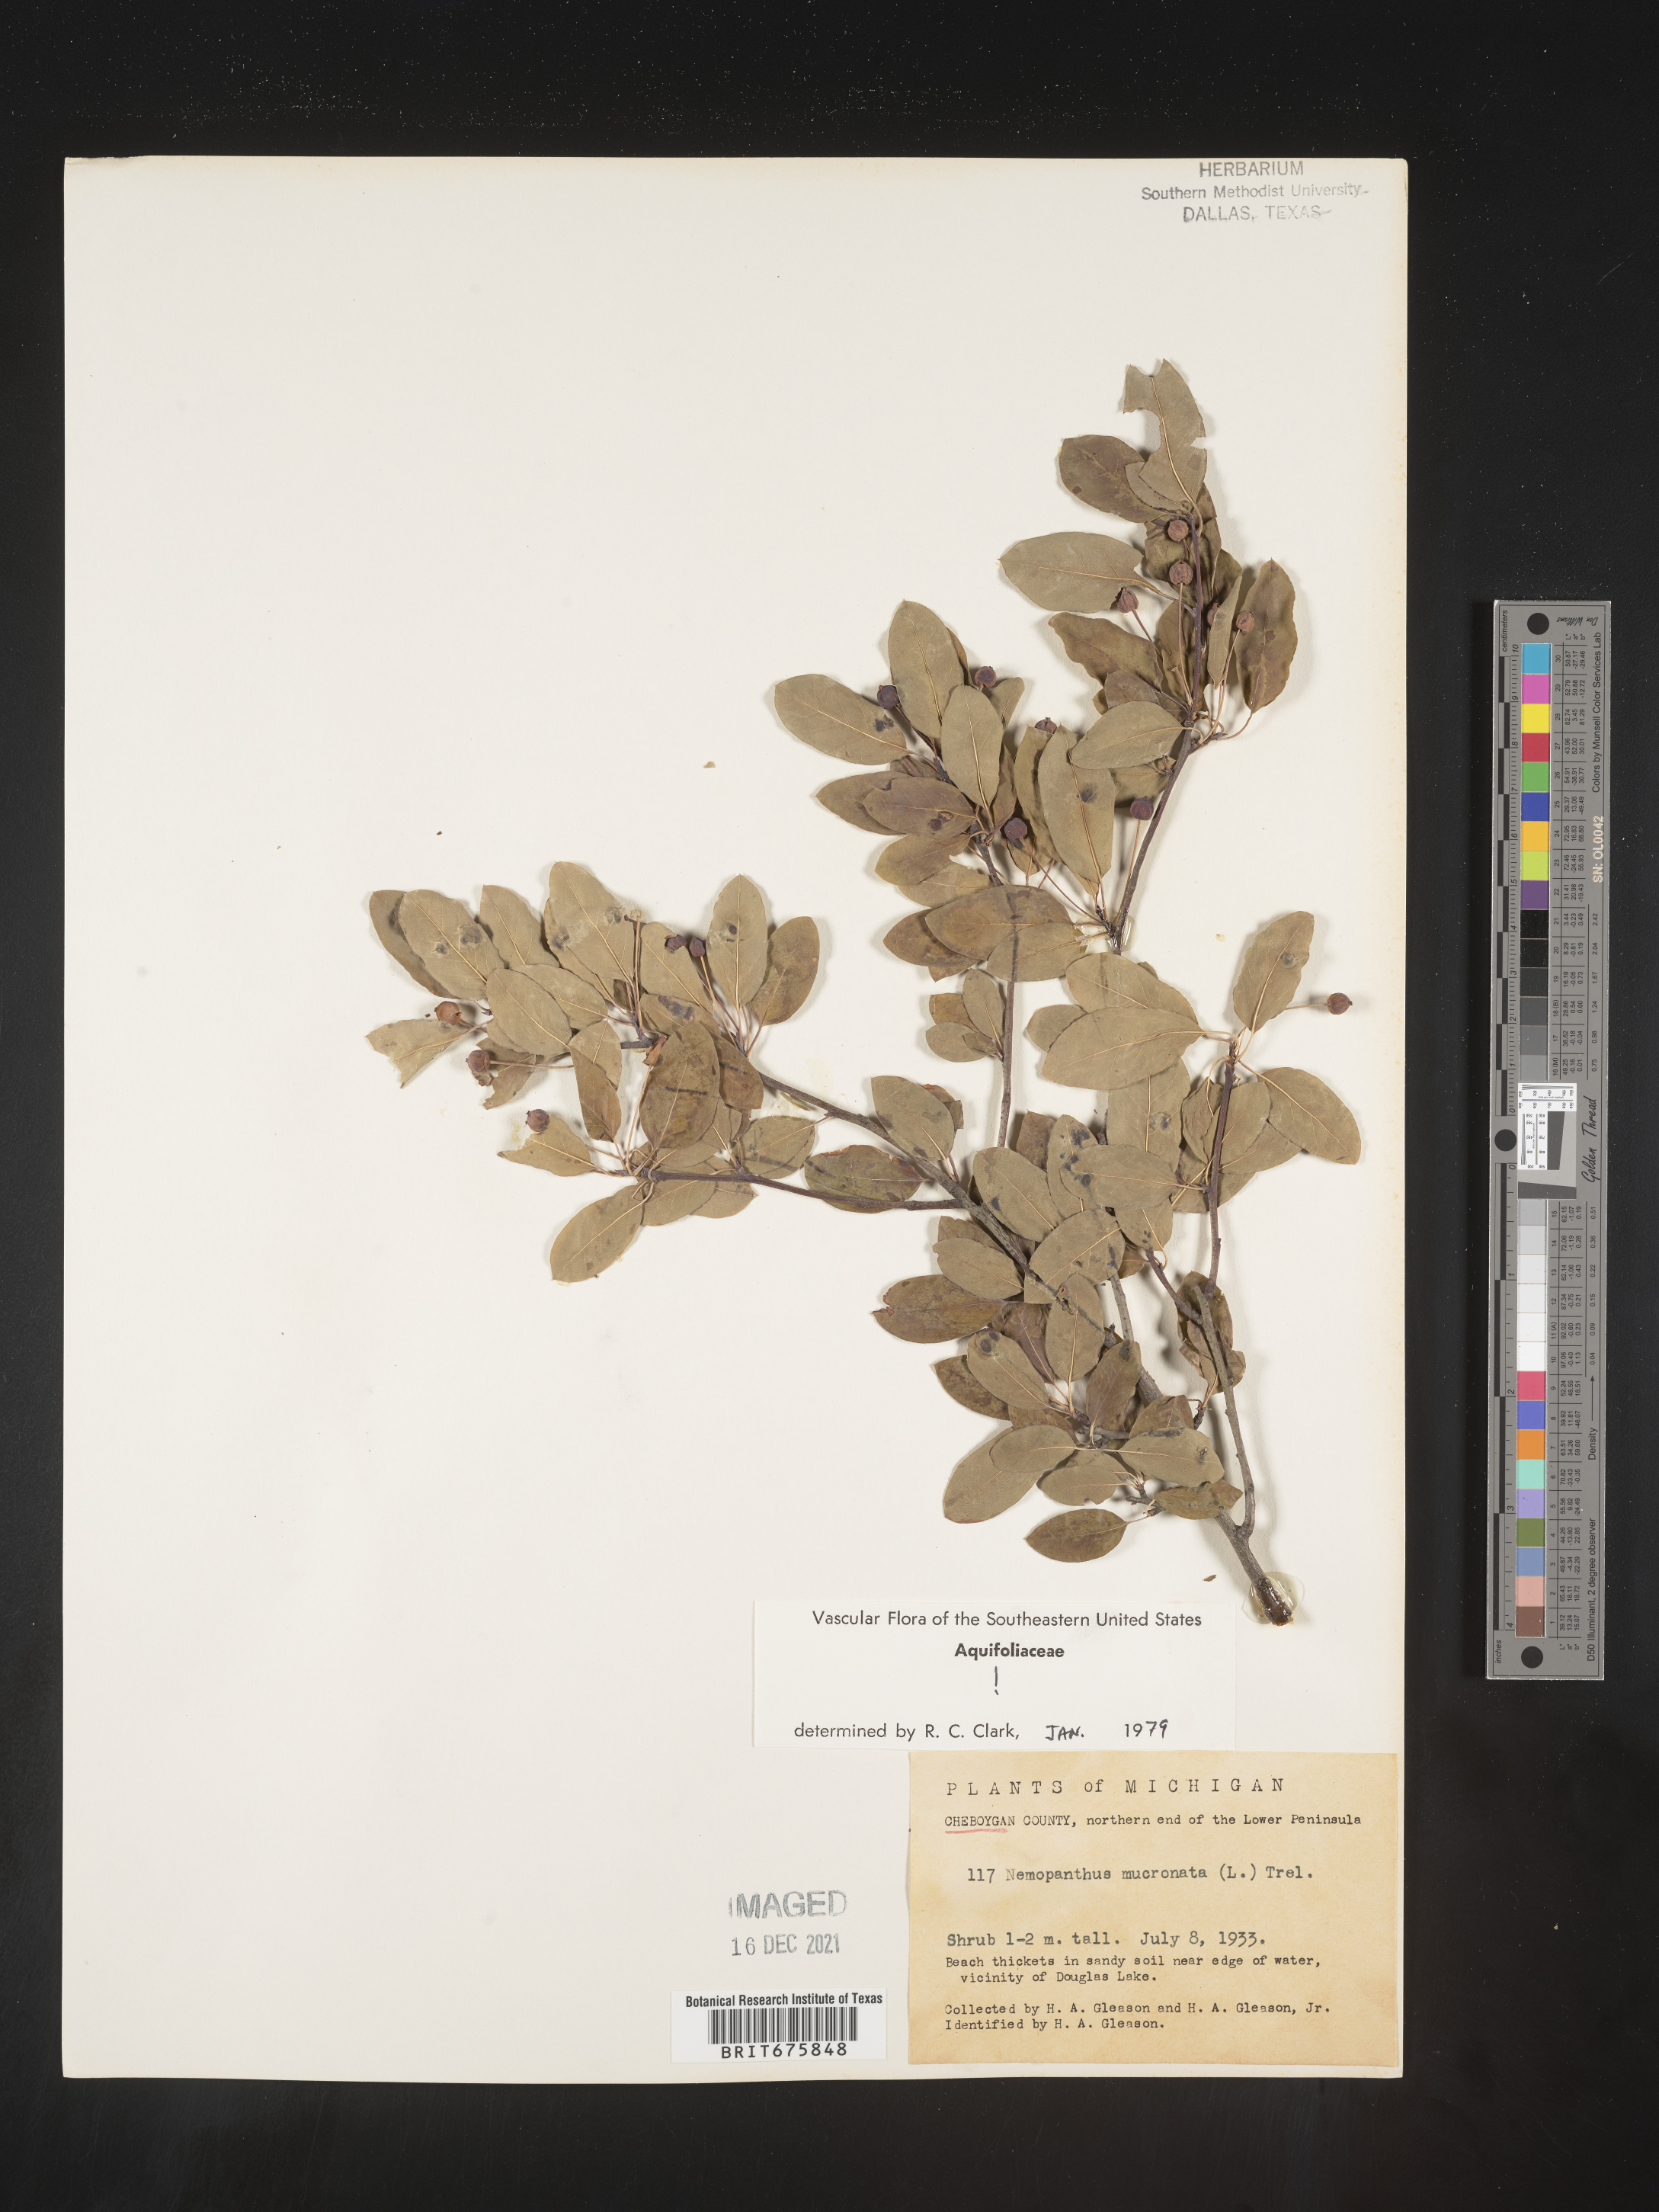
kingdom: Plantae
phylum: Tracheophyta
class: Magnoliopsida
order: Aquifoliales
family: Aquifoliaceae
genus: Ilex
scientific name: Ilex mucronata
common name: Catberry
